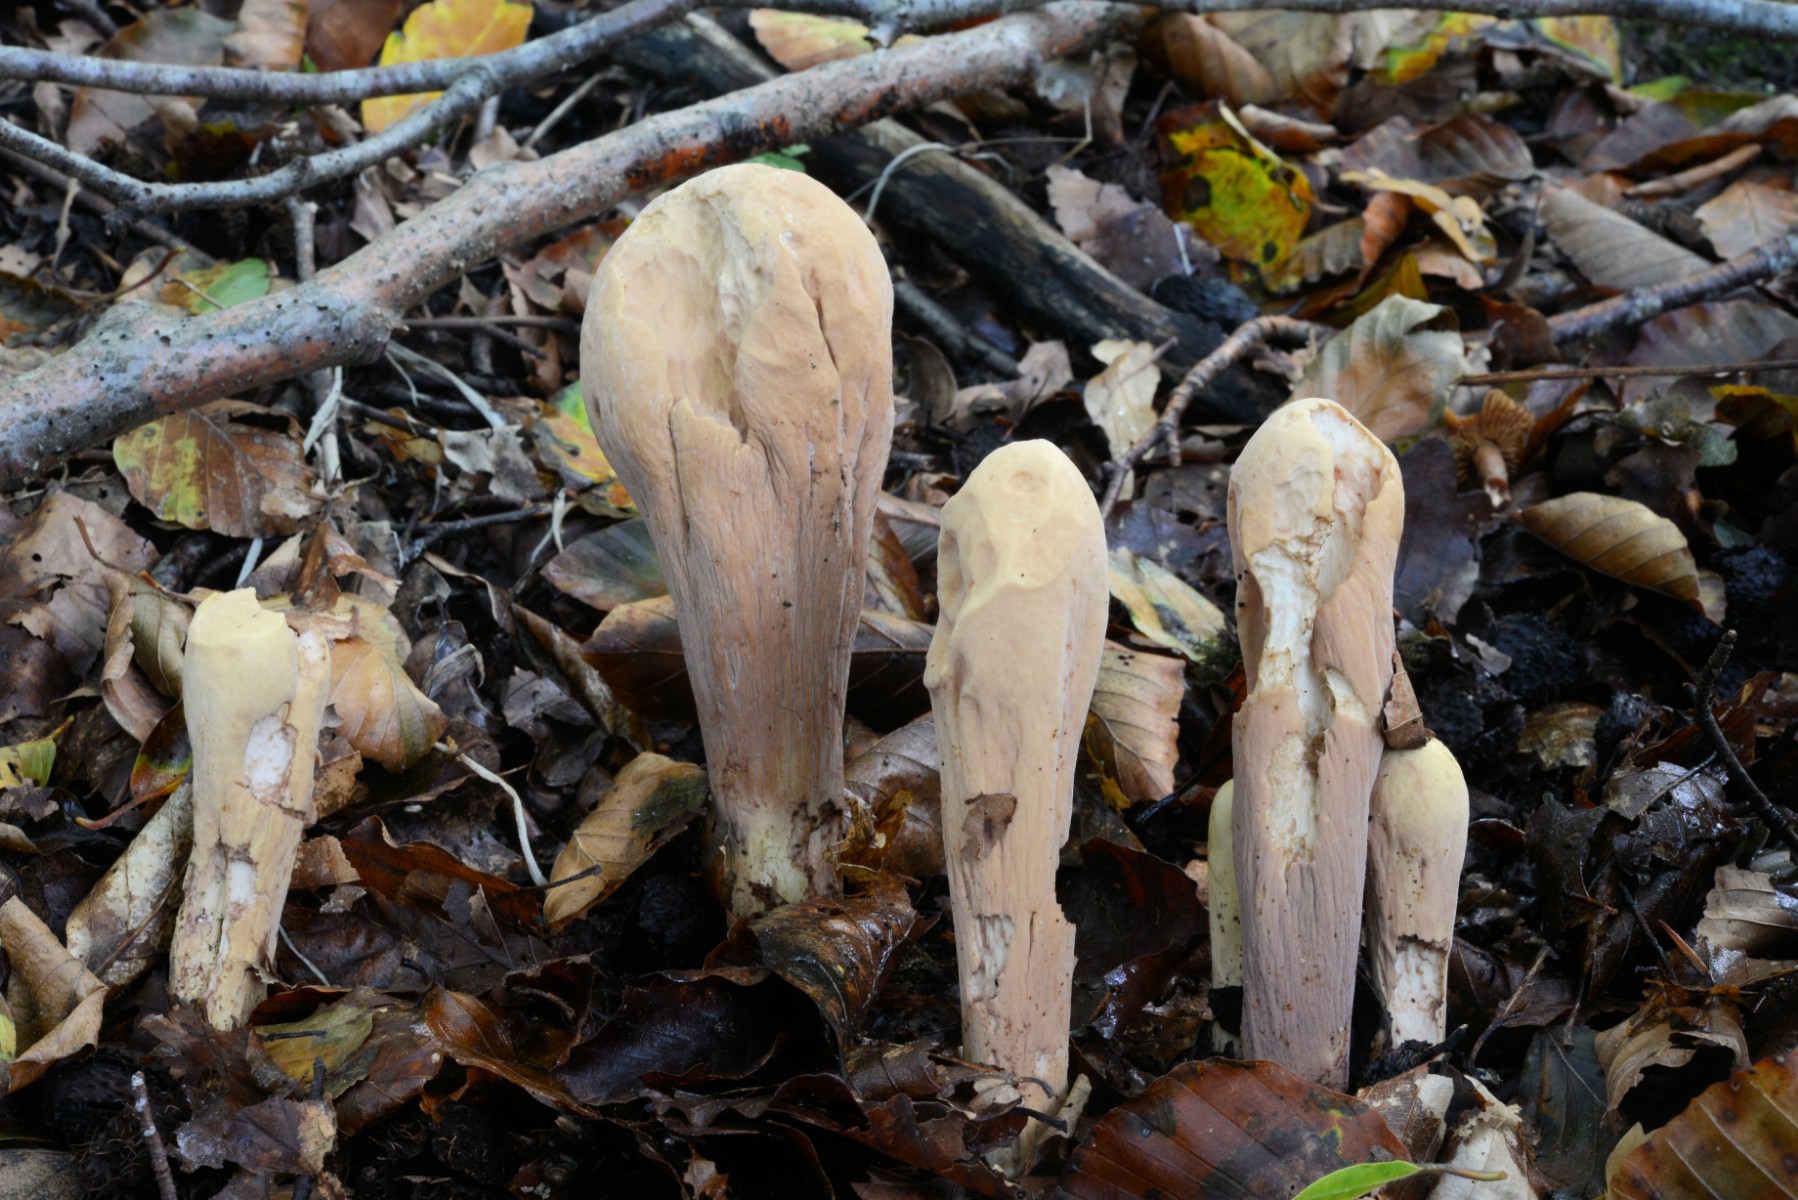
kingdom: Fungi
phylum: Basidiomycota
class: Agaricomycetes
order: Gomphales
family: Clavariadelphaceae
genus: Clavariadelphus
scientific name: Clavariadelphus pistillaris
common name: herkules-kæmpekølle
